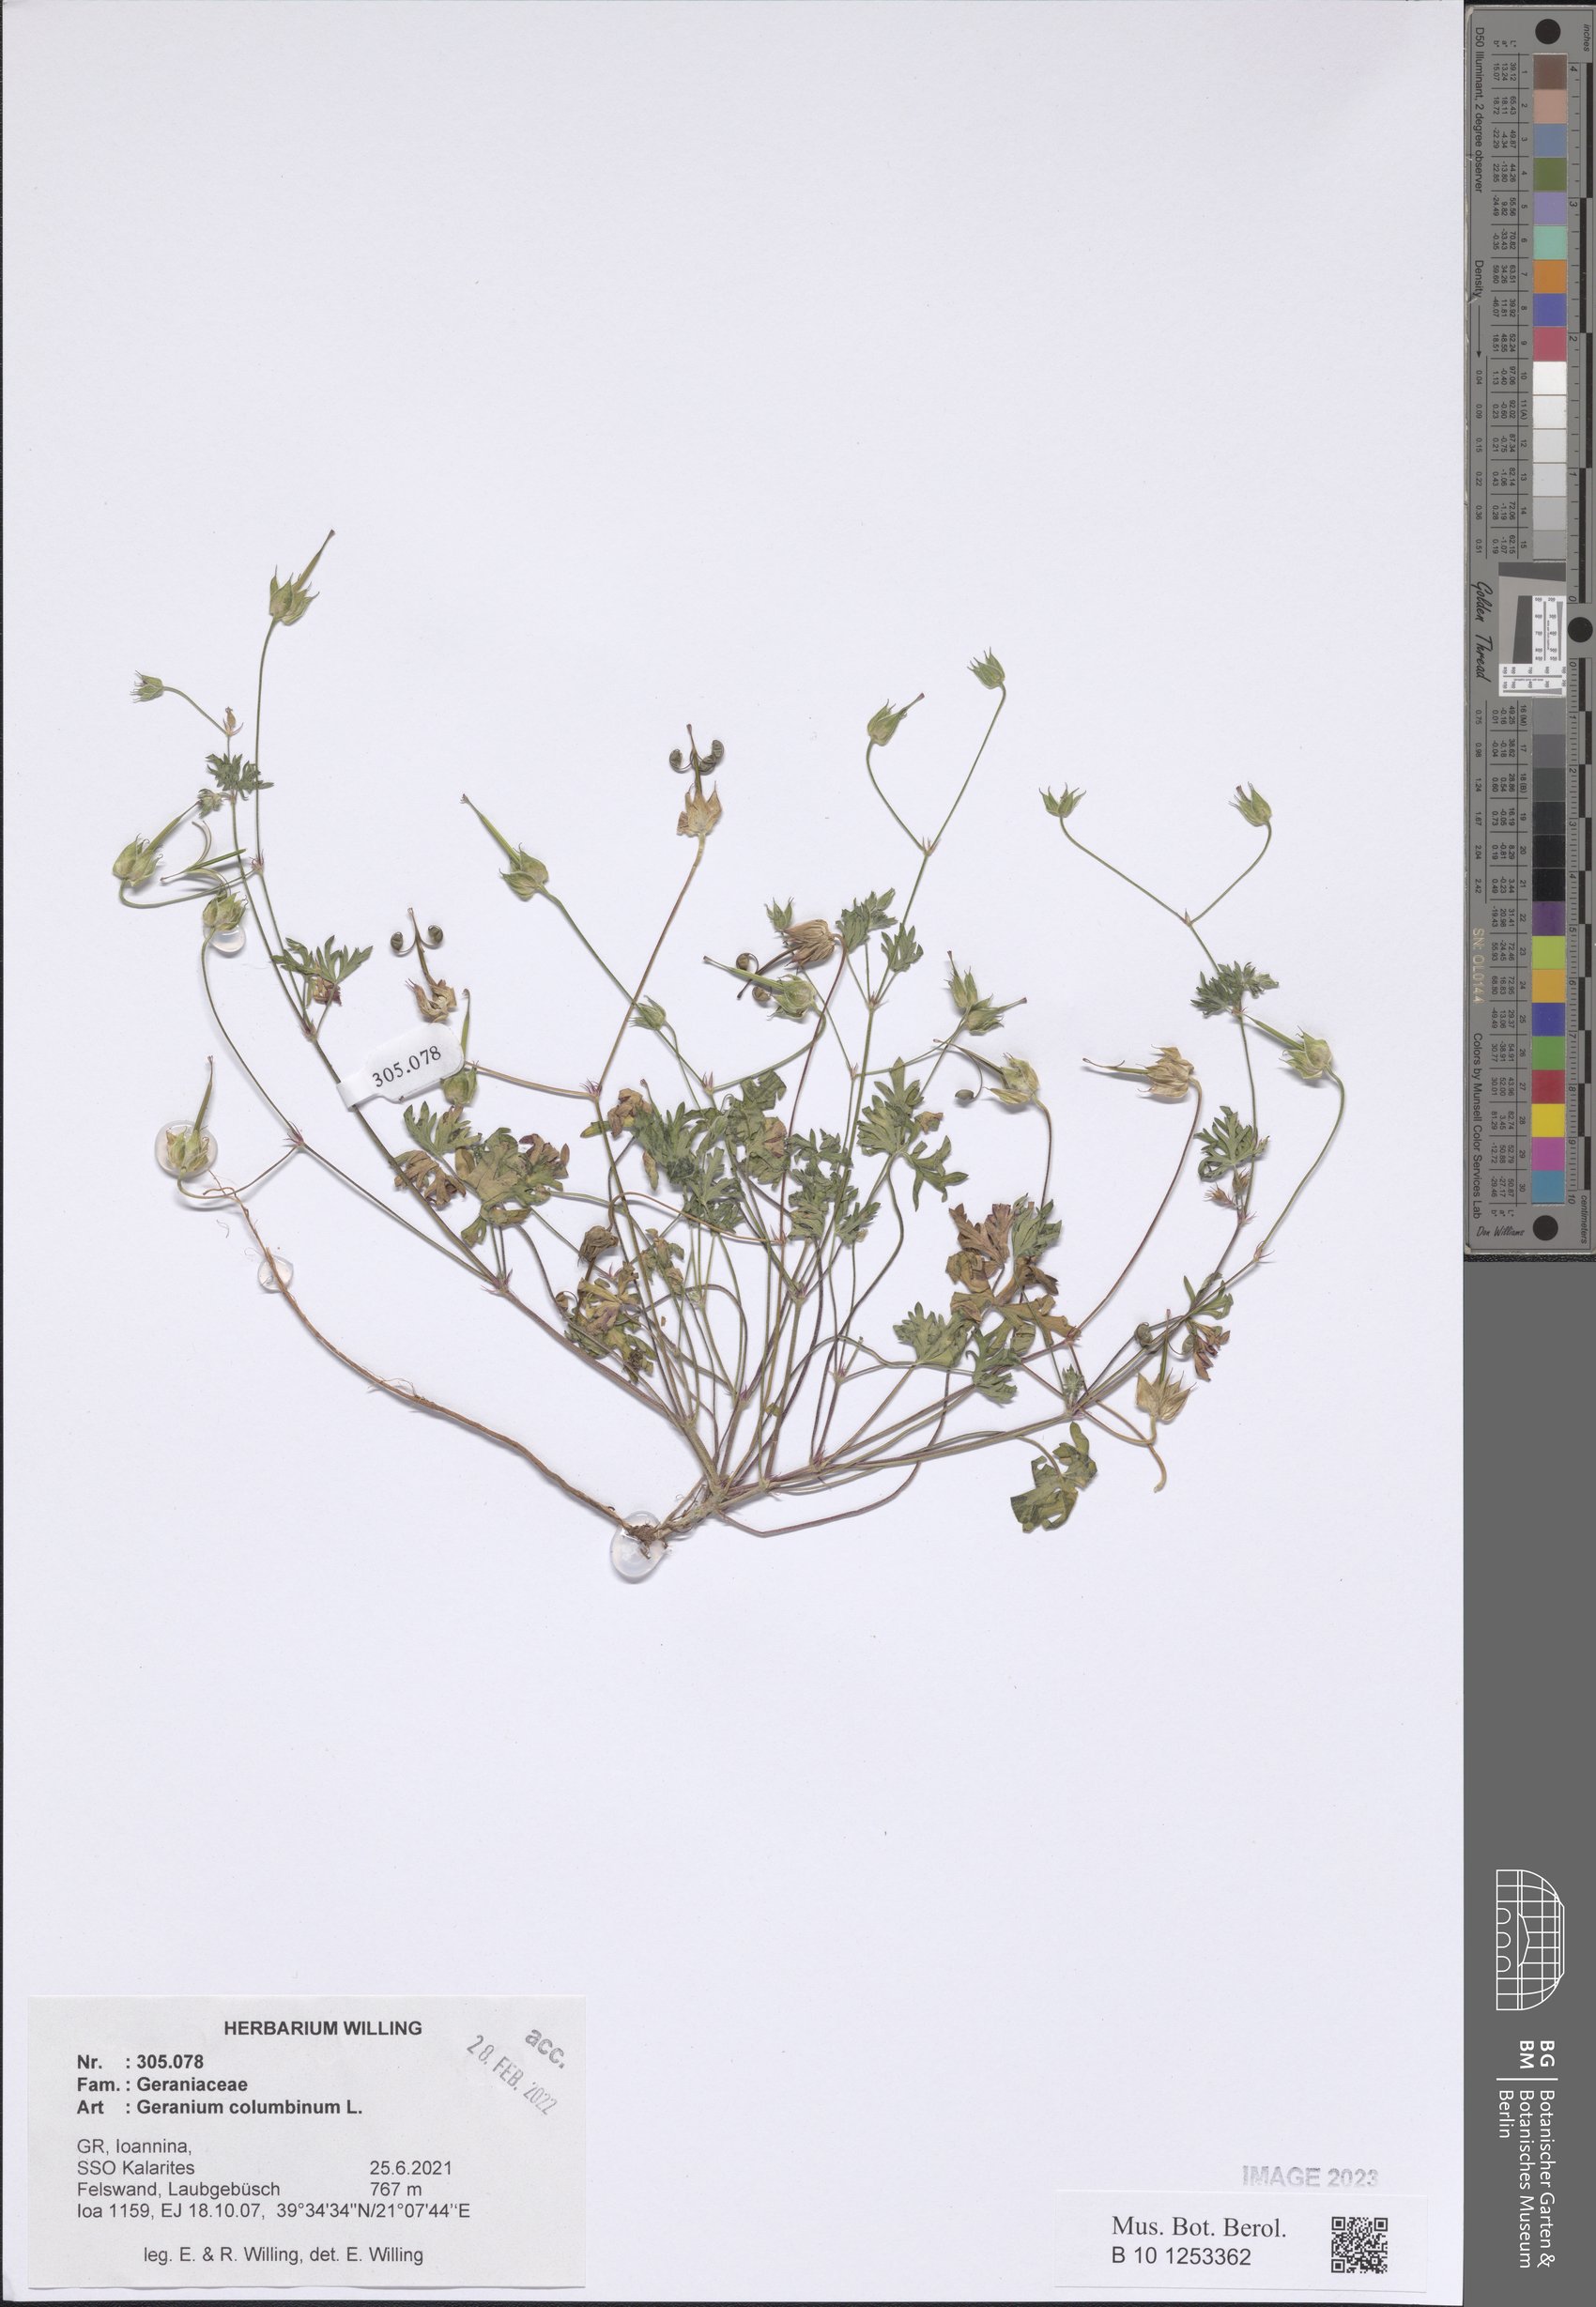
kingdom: Plantae
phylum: Tracheophyta
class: Magnoliopsida
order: Geraniales
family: Geraniaceae
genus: Geranium
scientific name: Geranium columbinum
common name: Long-stalked crane's-bill
